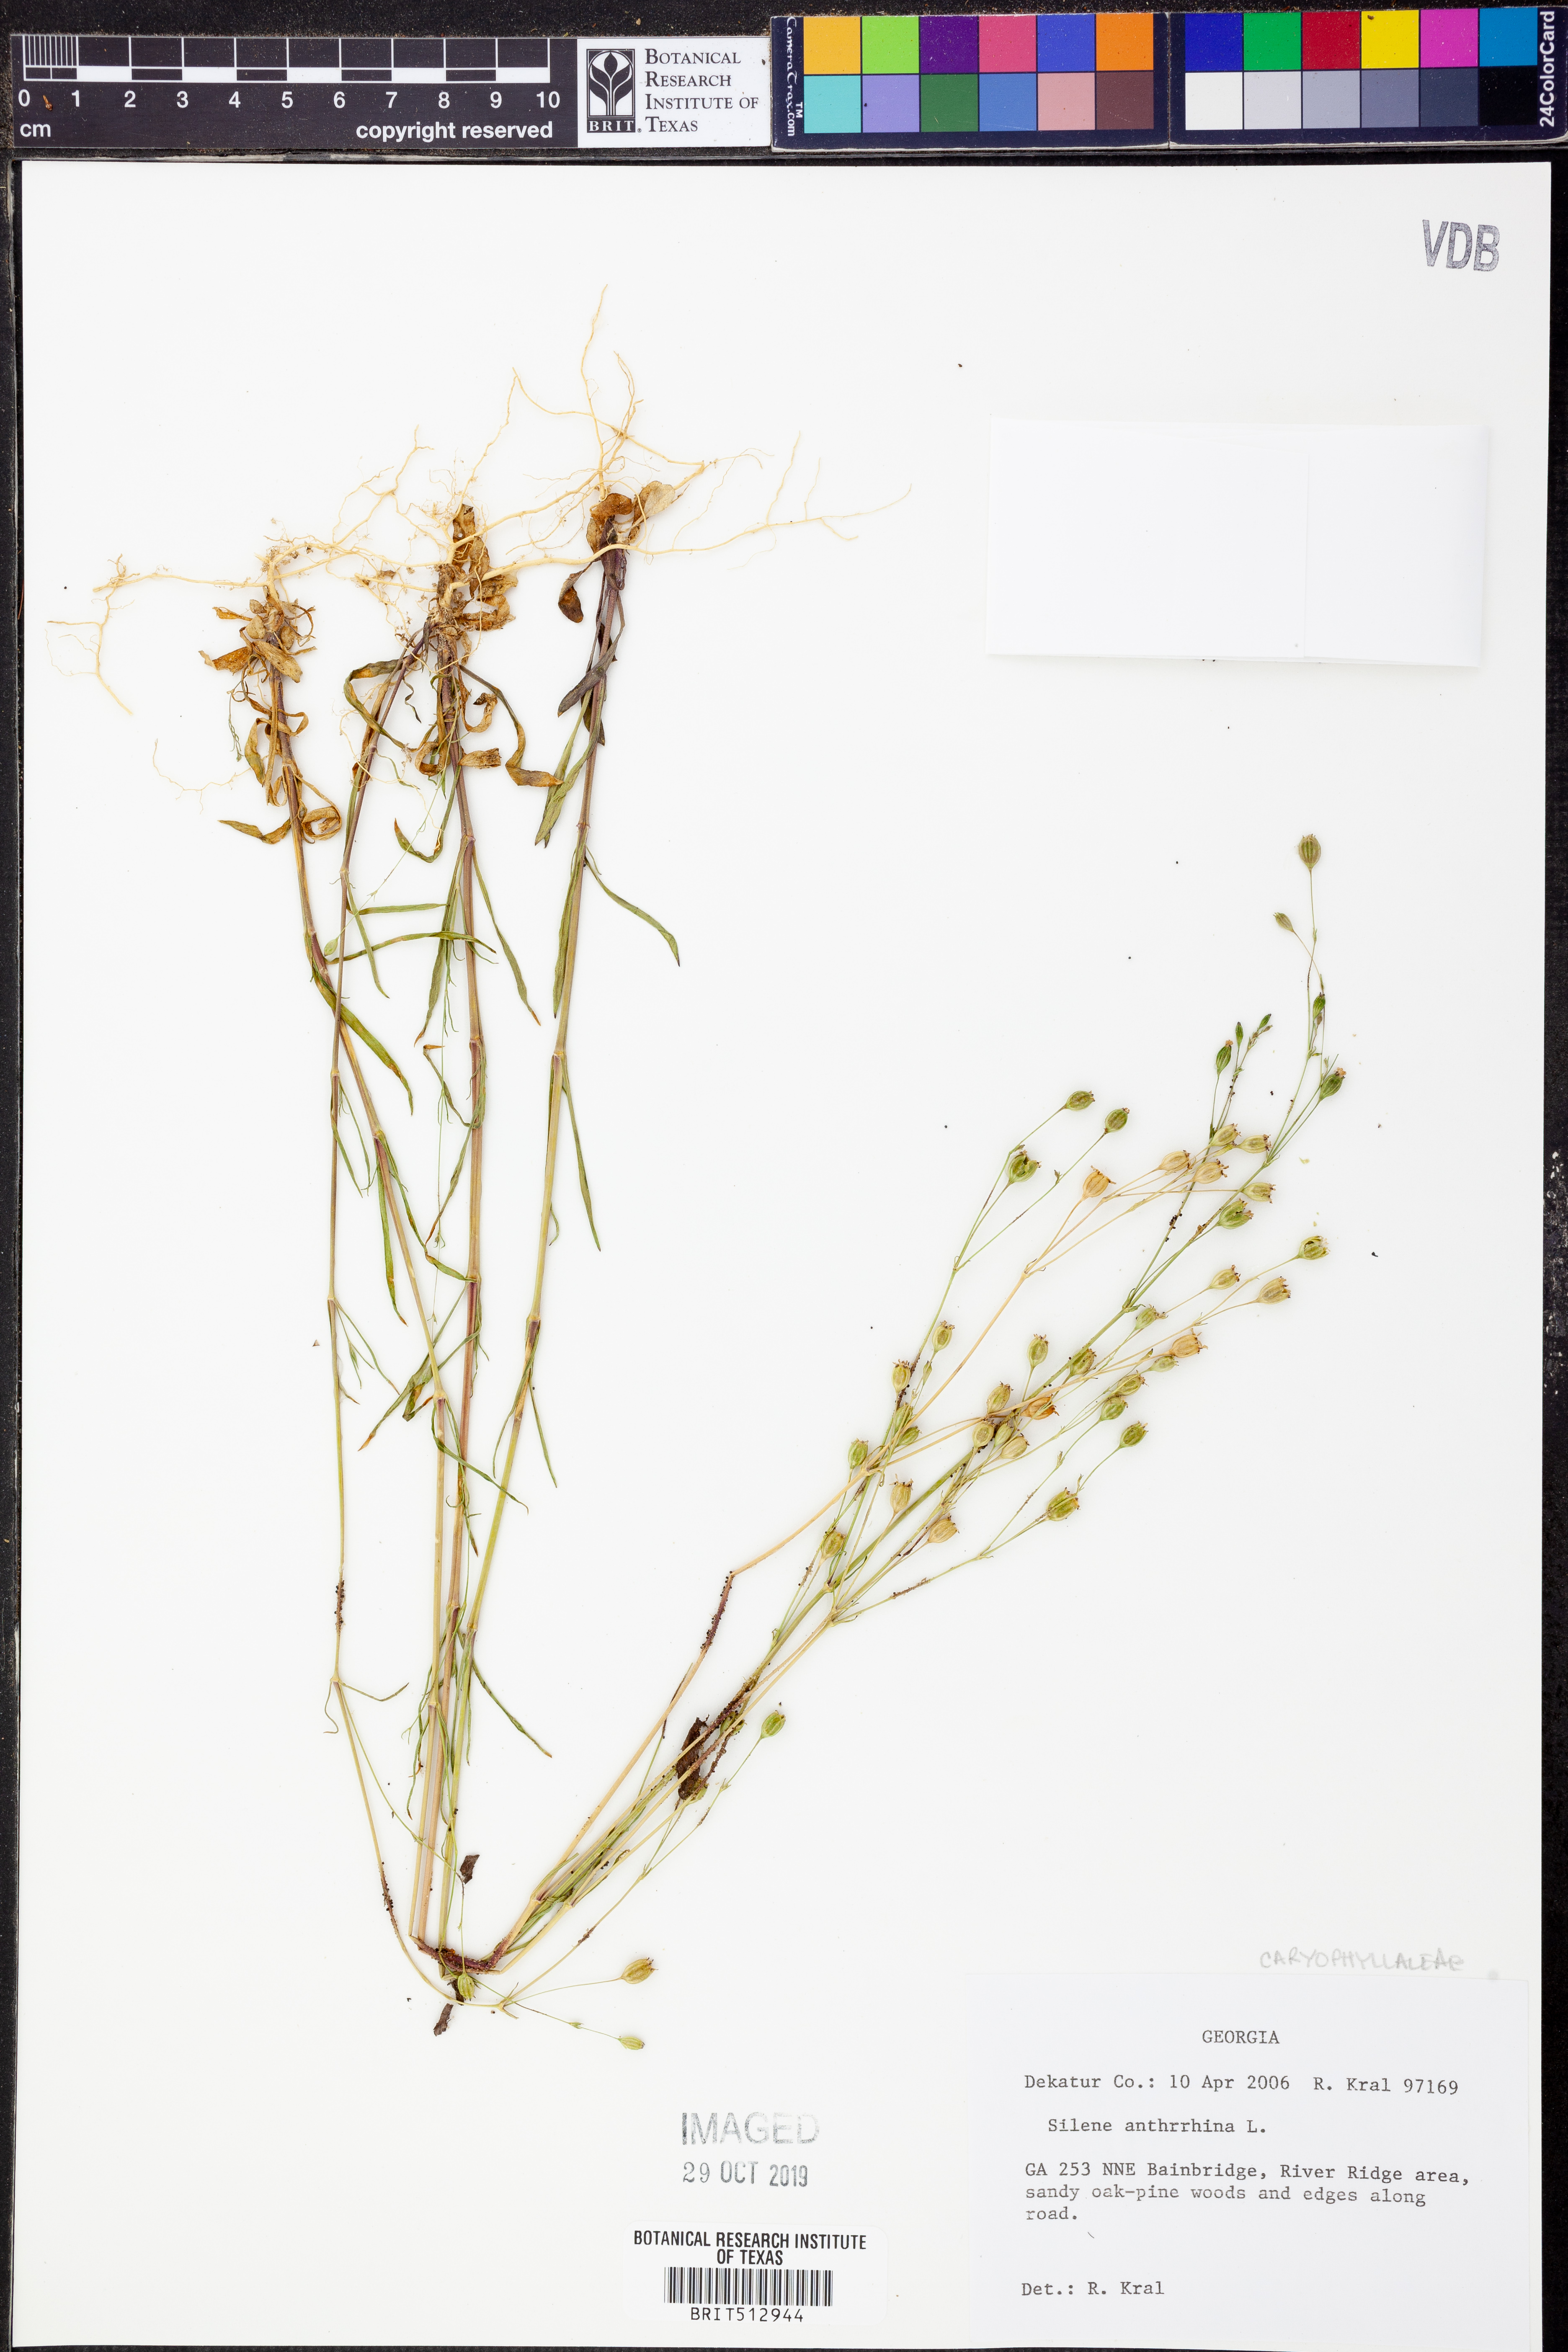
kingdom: Plantae
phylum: Tracheophyta
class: Magnoliopsida
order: Caryophyllales
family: Caryophyllaceae
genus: Silene
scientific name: Silene antirrhina
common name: Sleepy catchfly
